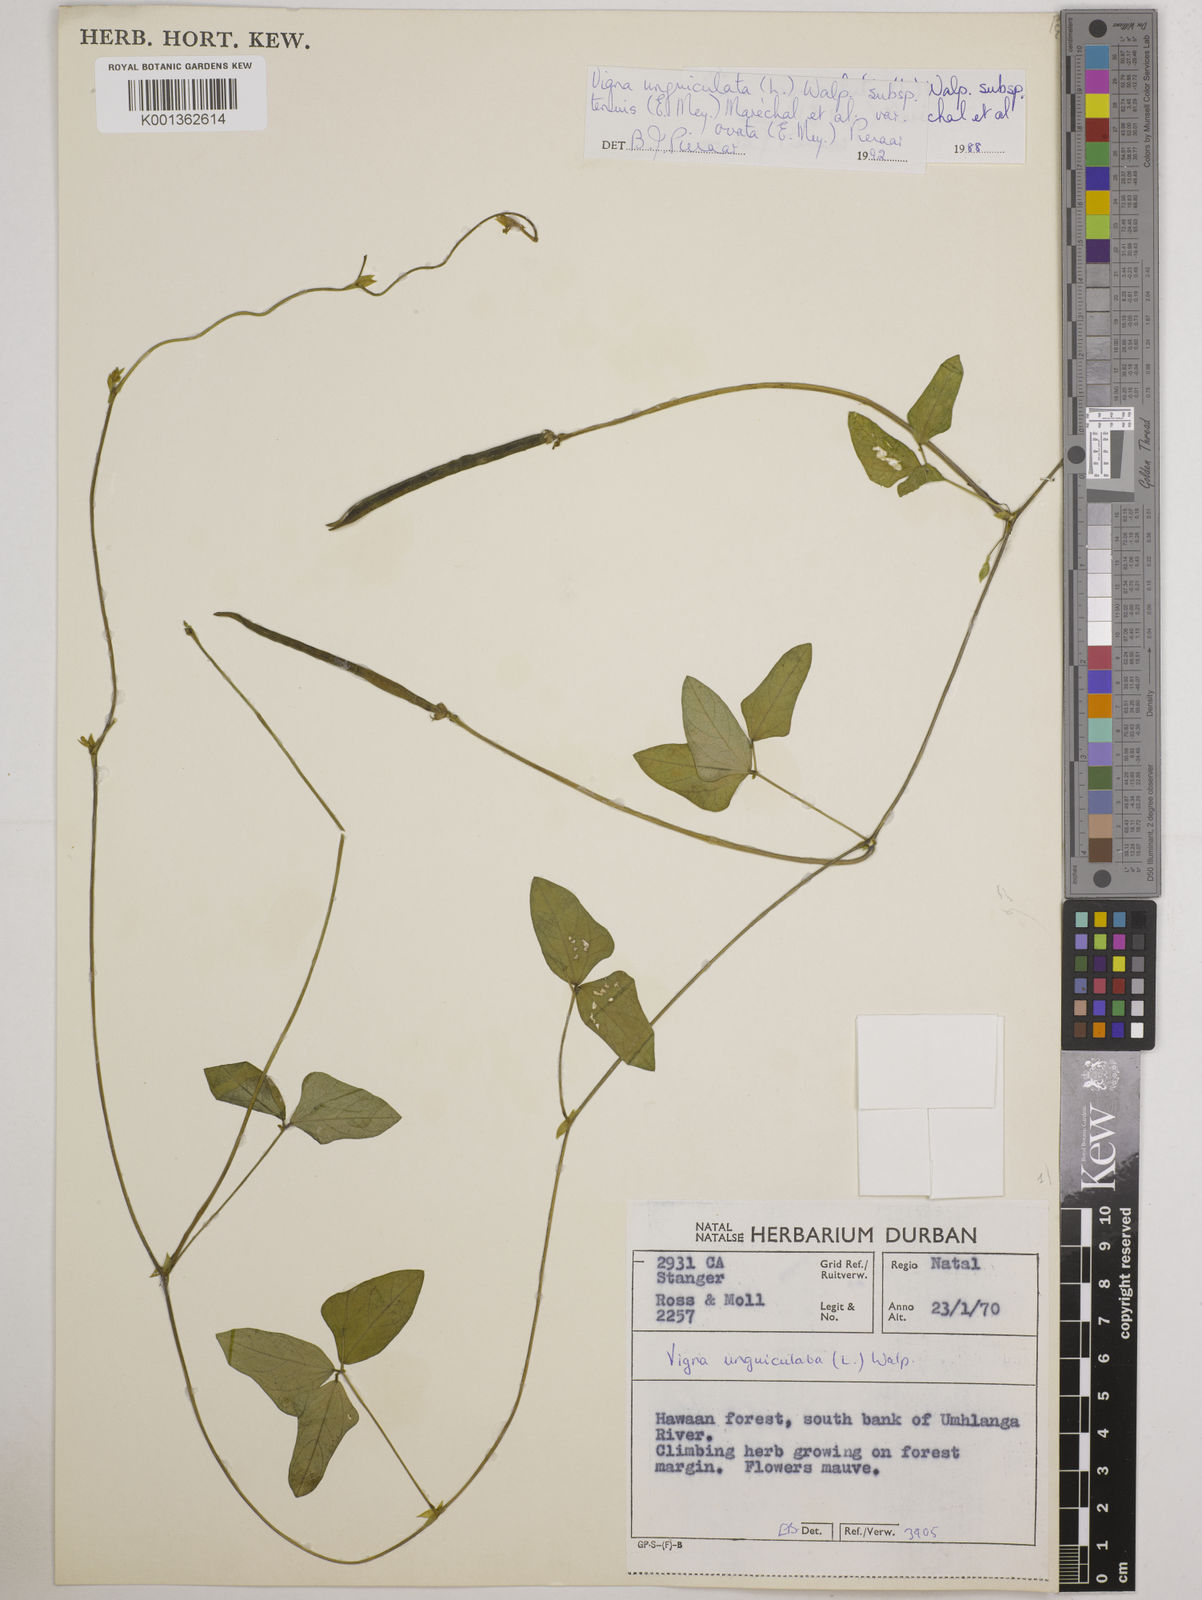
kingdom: Plantae
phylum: Tracheophyta
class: Magnoliopsida
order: Fabales
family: Fabaceae
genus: Vigna
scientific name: Vigna
